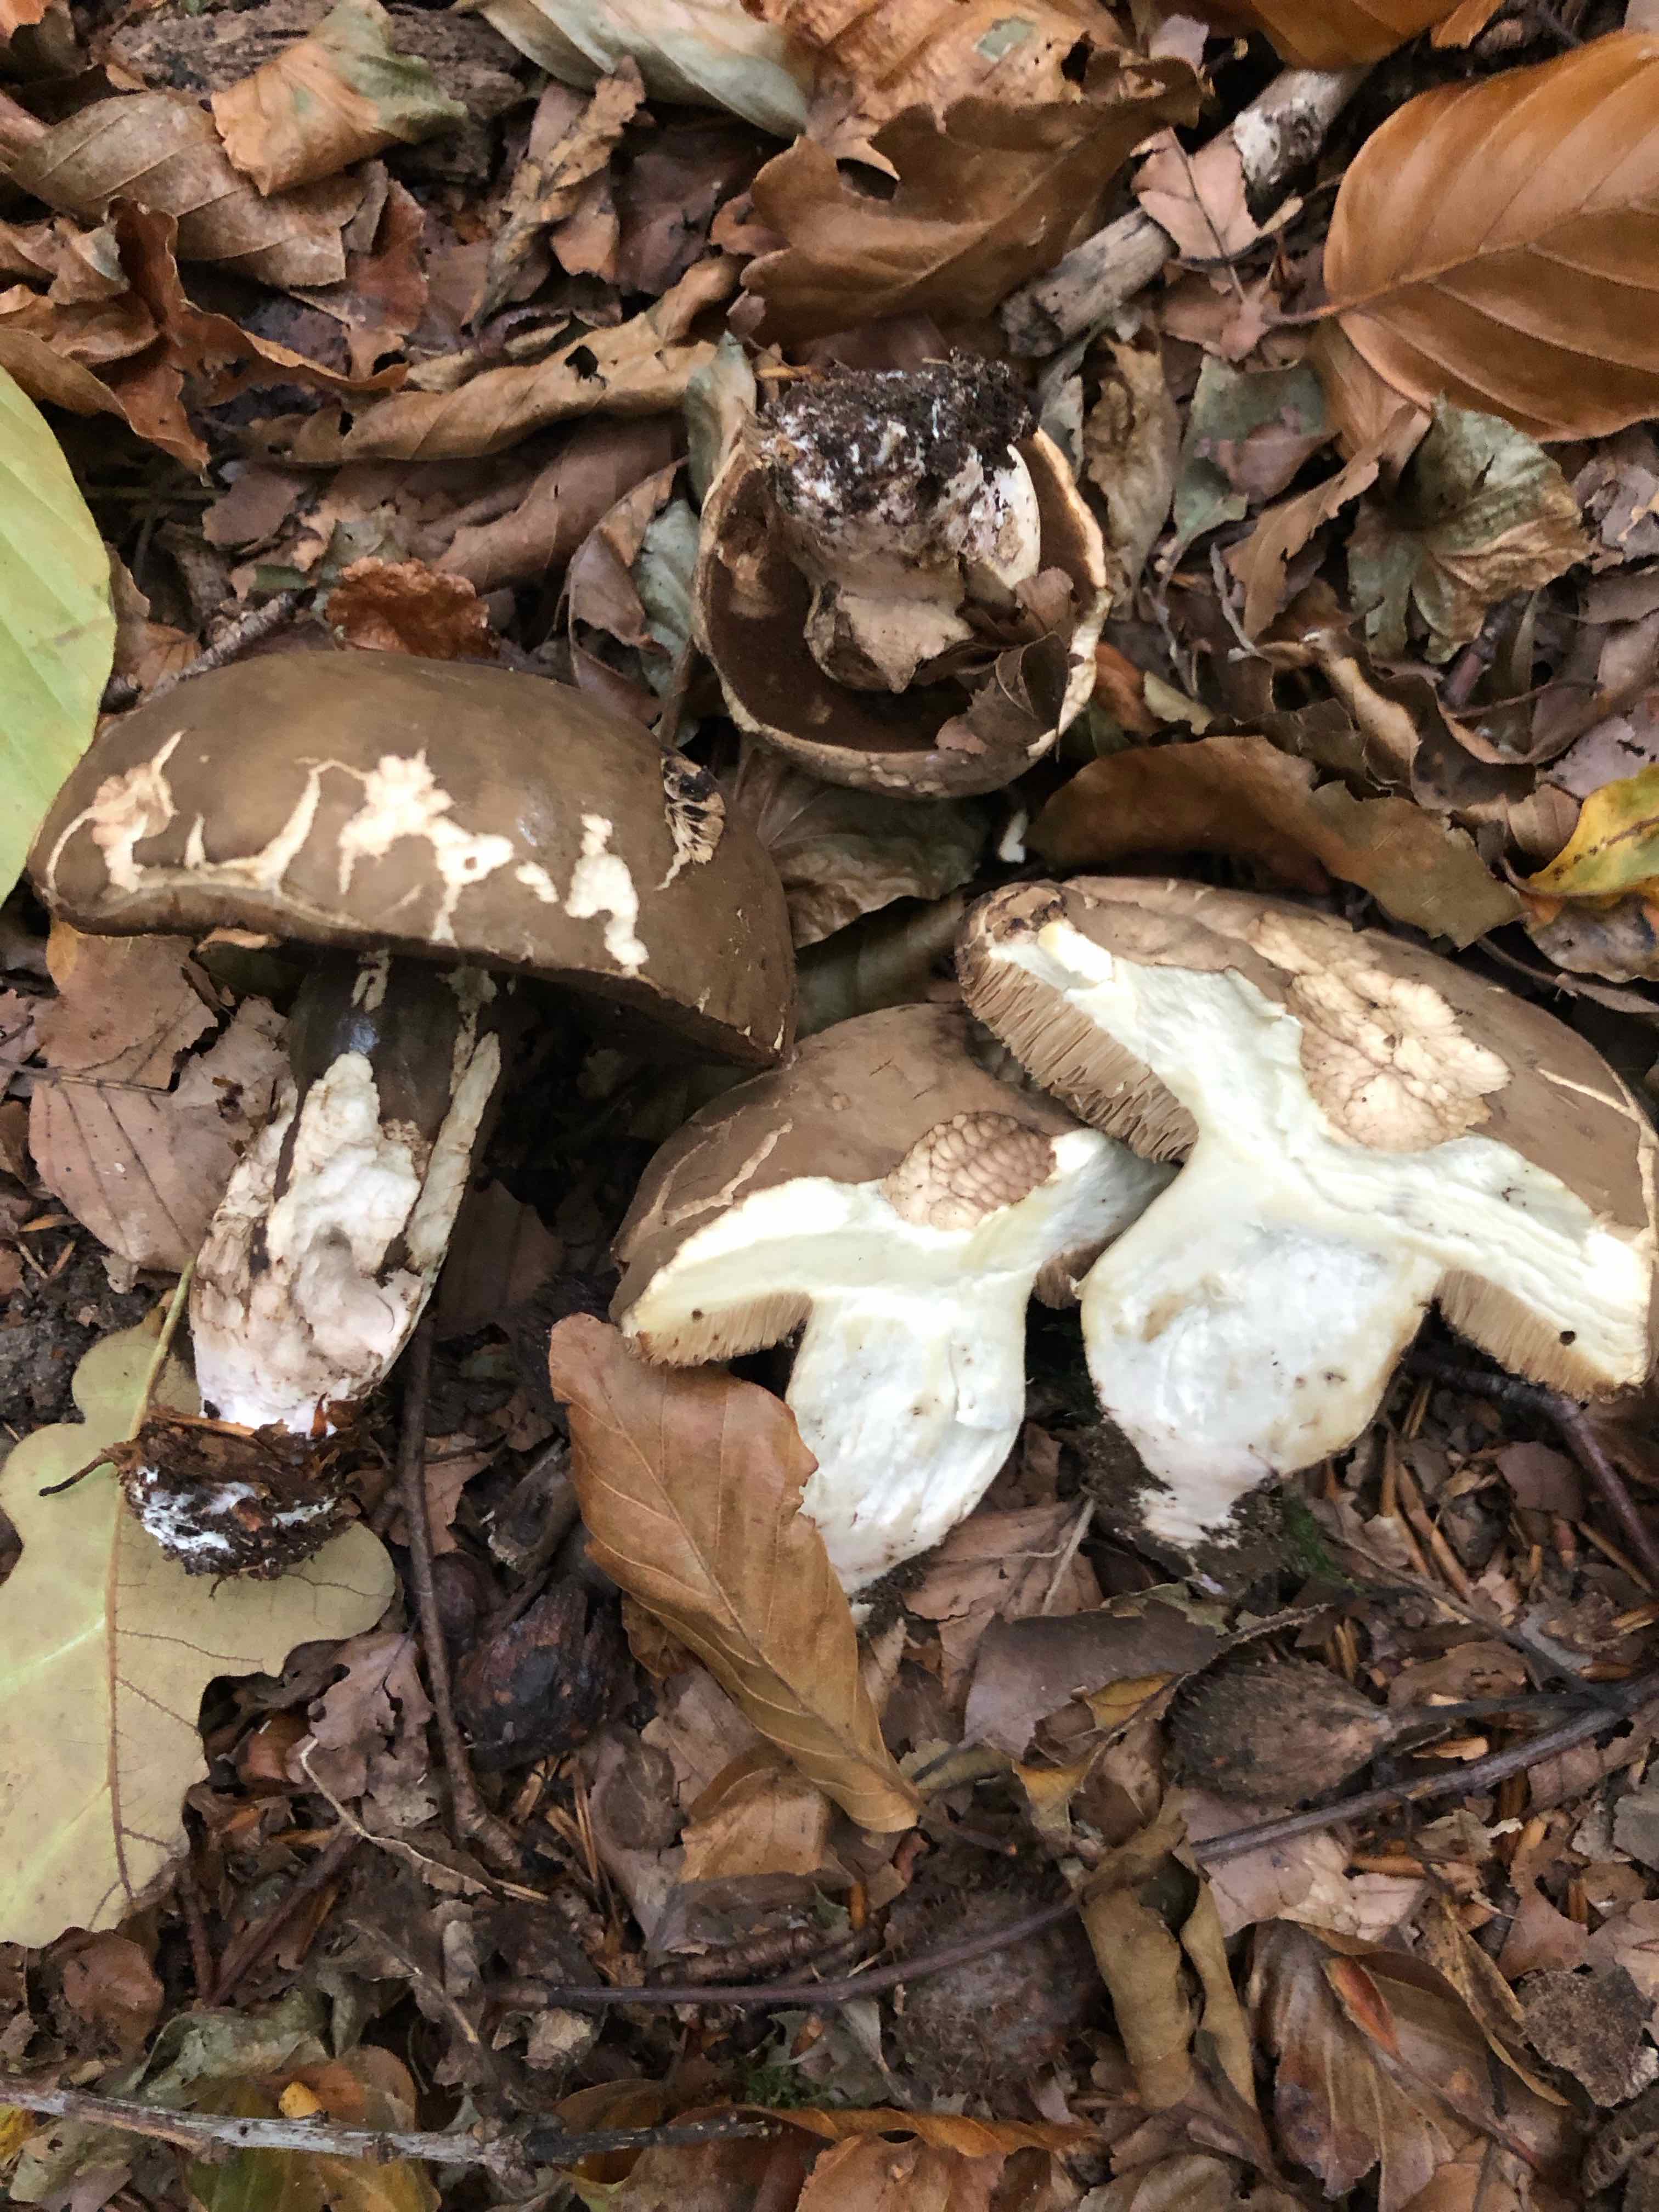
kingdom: Fungi
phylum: Basidiomycota
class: Agaricomycetes
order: Boletales
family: Boletaceae
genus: Porphyrellus
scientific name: Porphyrellus porphyrosporus
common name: sodrørhat
